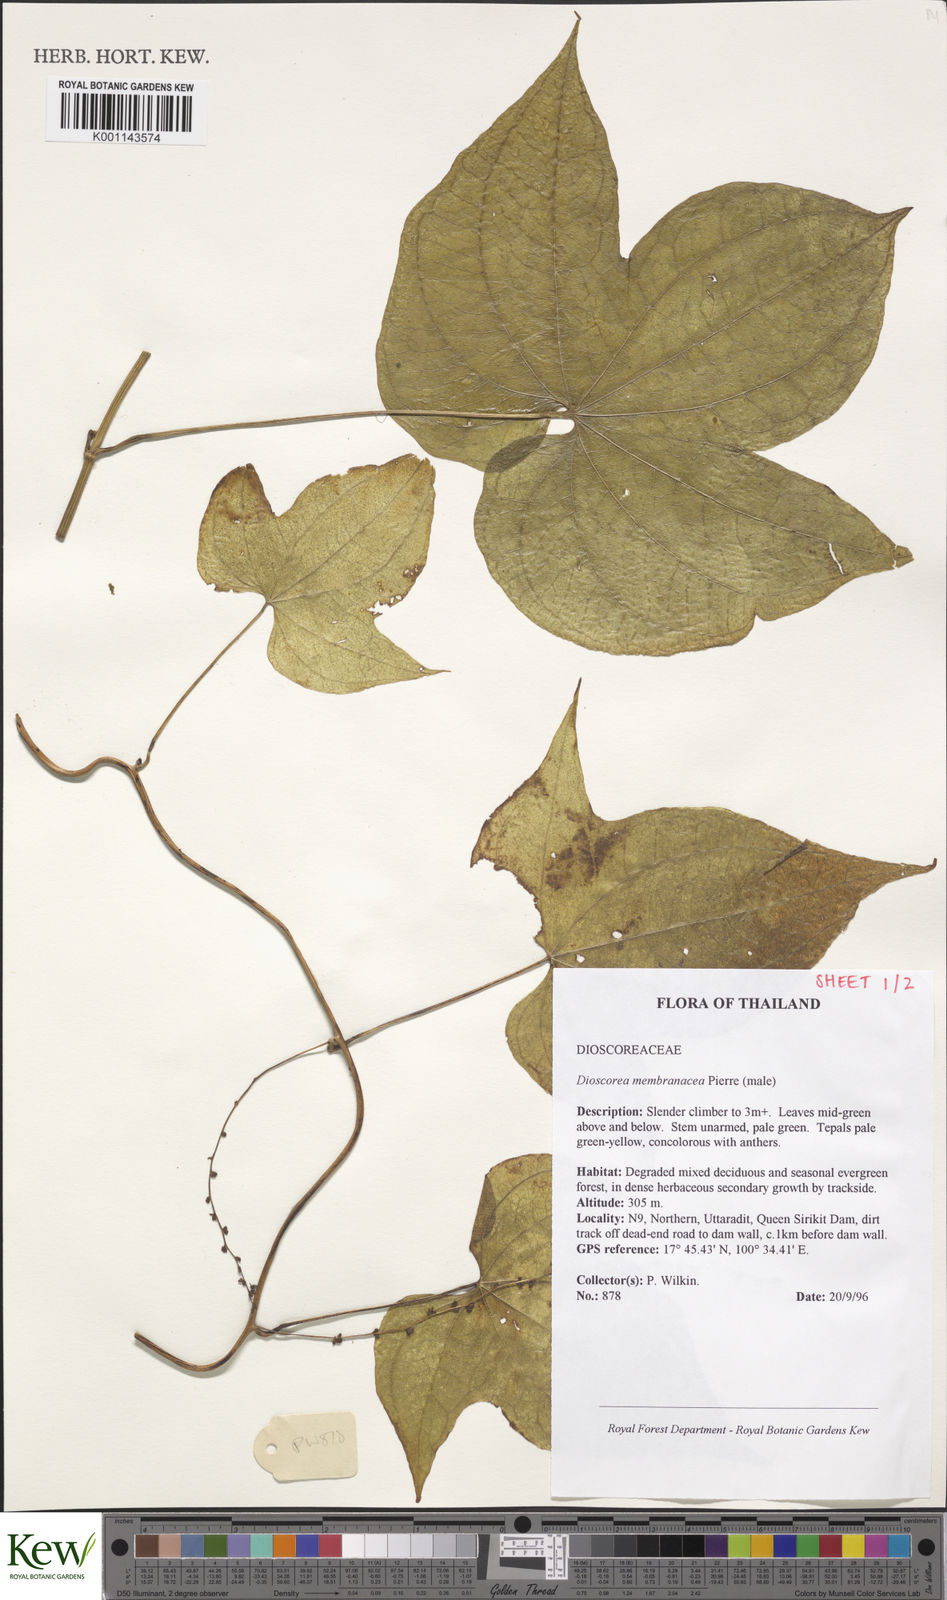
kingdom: Plantae
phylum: Tracheophyta
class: Liliopsida
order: Dioscoreales
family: Dioscoreaceae
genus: Dioscorea
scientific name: Dioscorea membranacea
